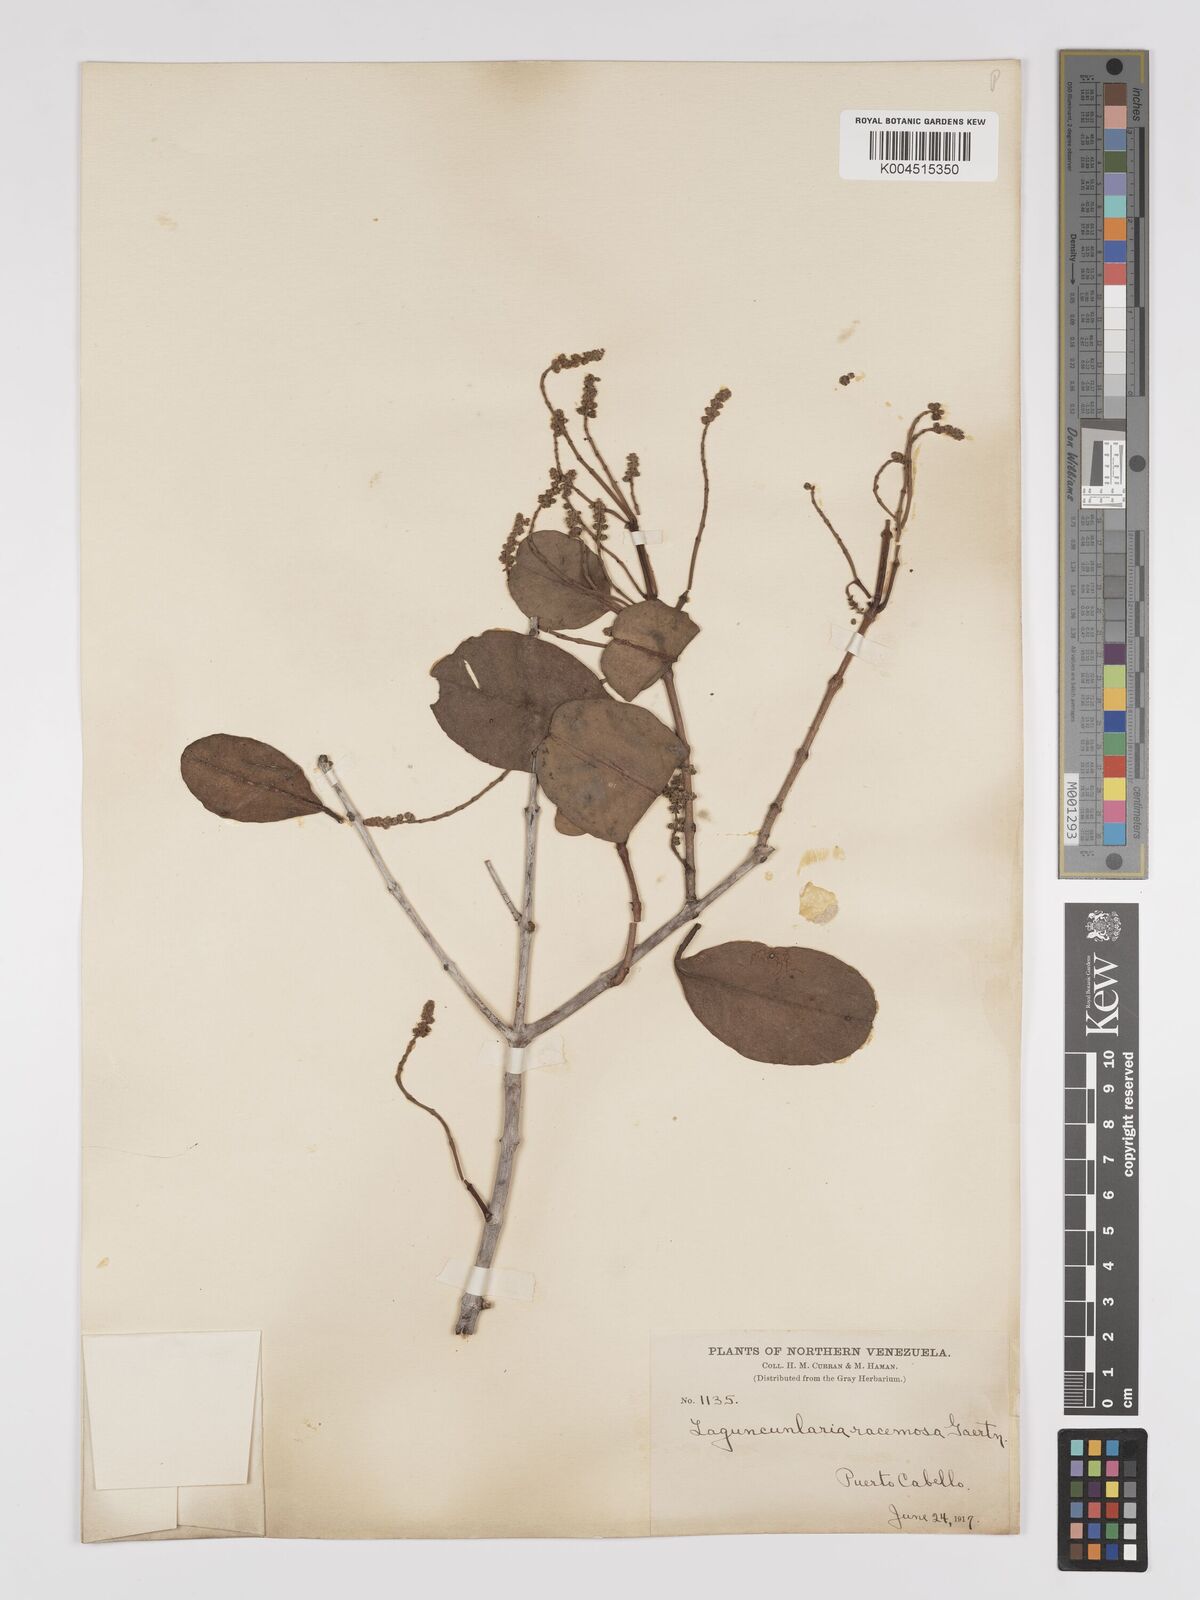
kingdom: Plantae
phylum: Tracheophyta
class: Magnoliopsida
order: Myrtales
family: Combretaceae
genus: Laguncularia
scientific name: Laguncularia racemosa
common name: White mangrove
